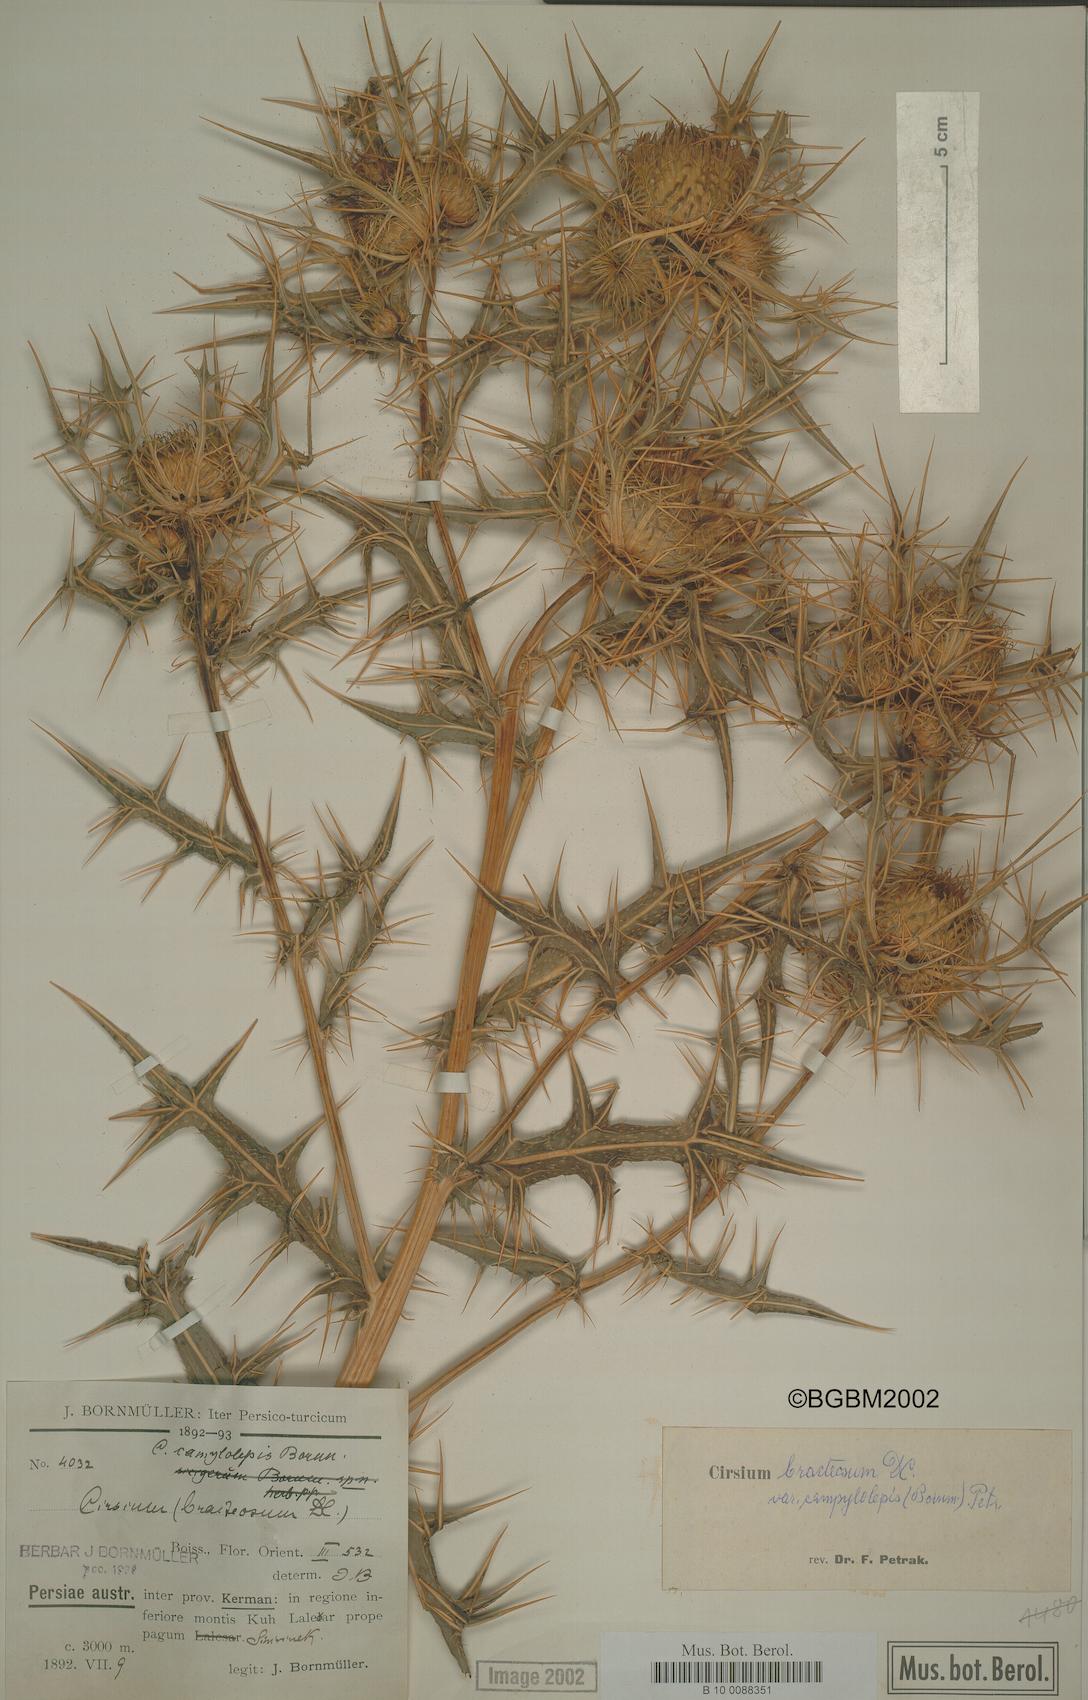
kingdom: Plantae
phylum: Tracheophyta
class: Magnoliopsida
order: Asterales
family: Asteraceae
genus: Cirsium
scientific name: Cirsium bracteosum
